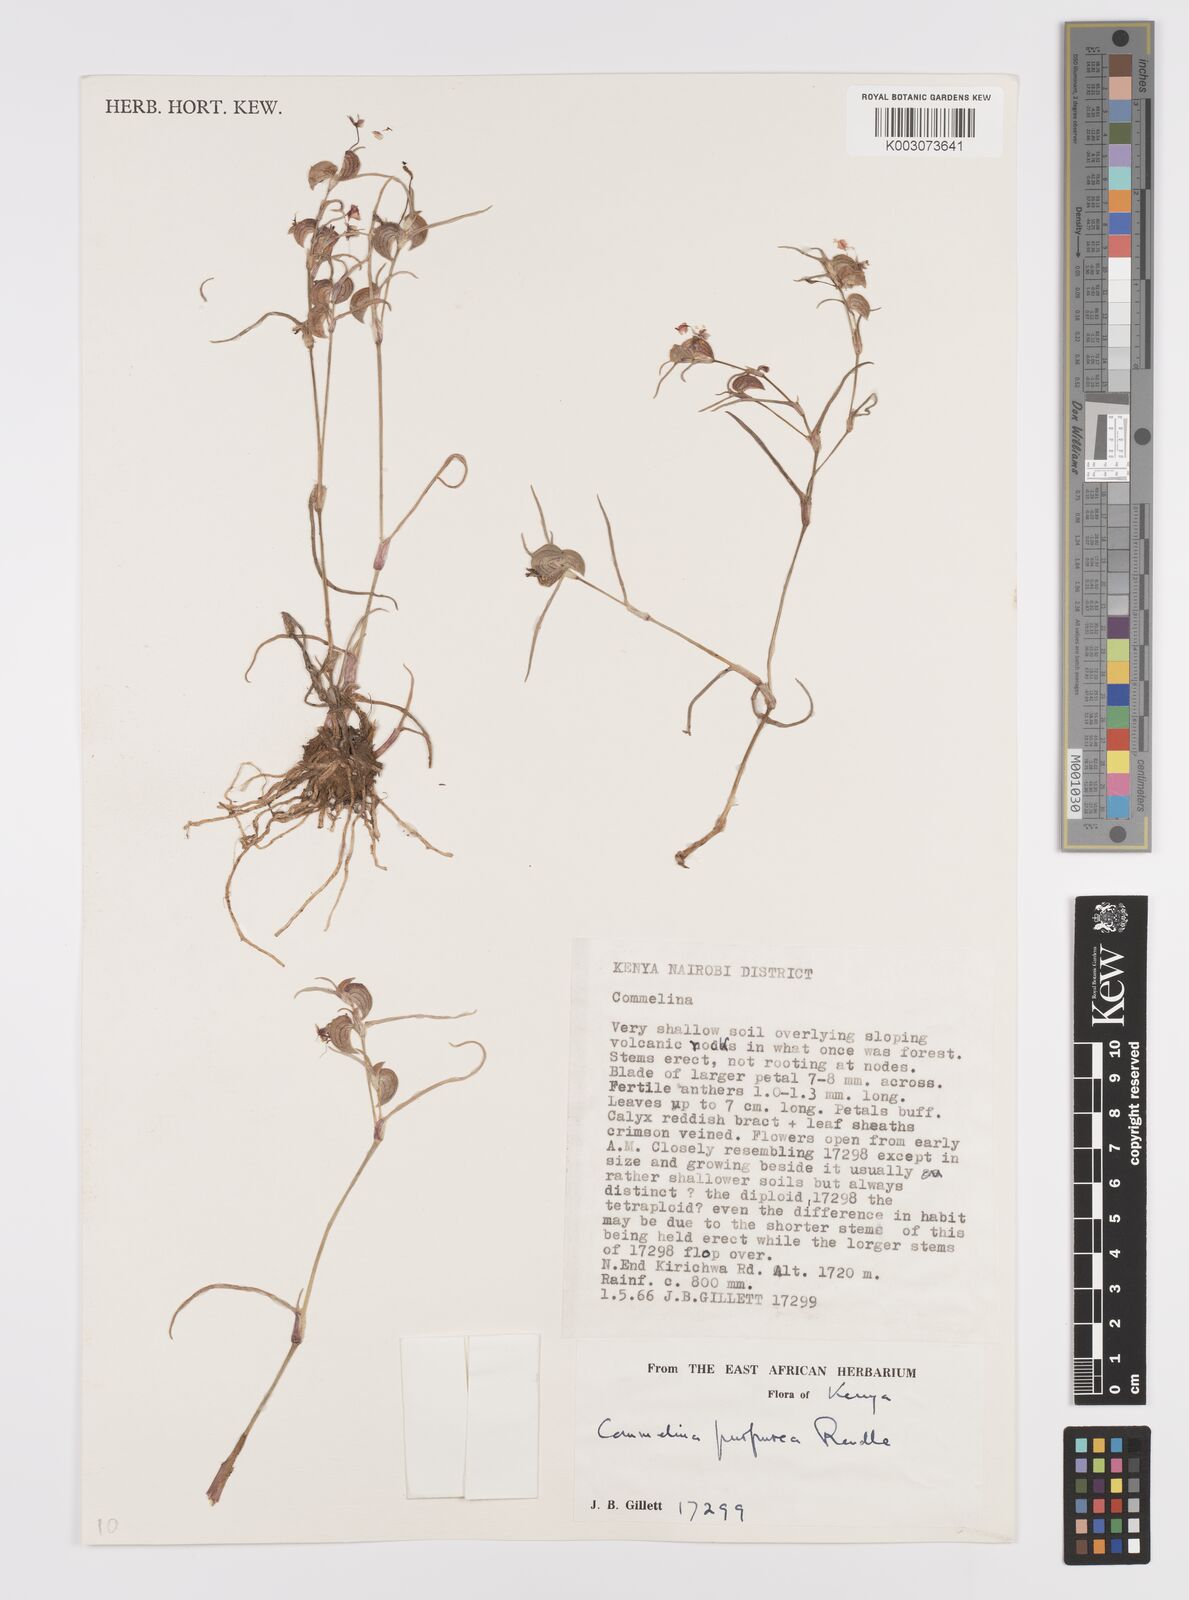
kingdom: Plantae
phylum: Tracheophyta
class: Liliopsida
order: Commelinales
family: Commelinaceae
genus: Commelina
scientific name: Commelina purpurea
